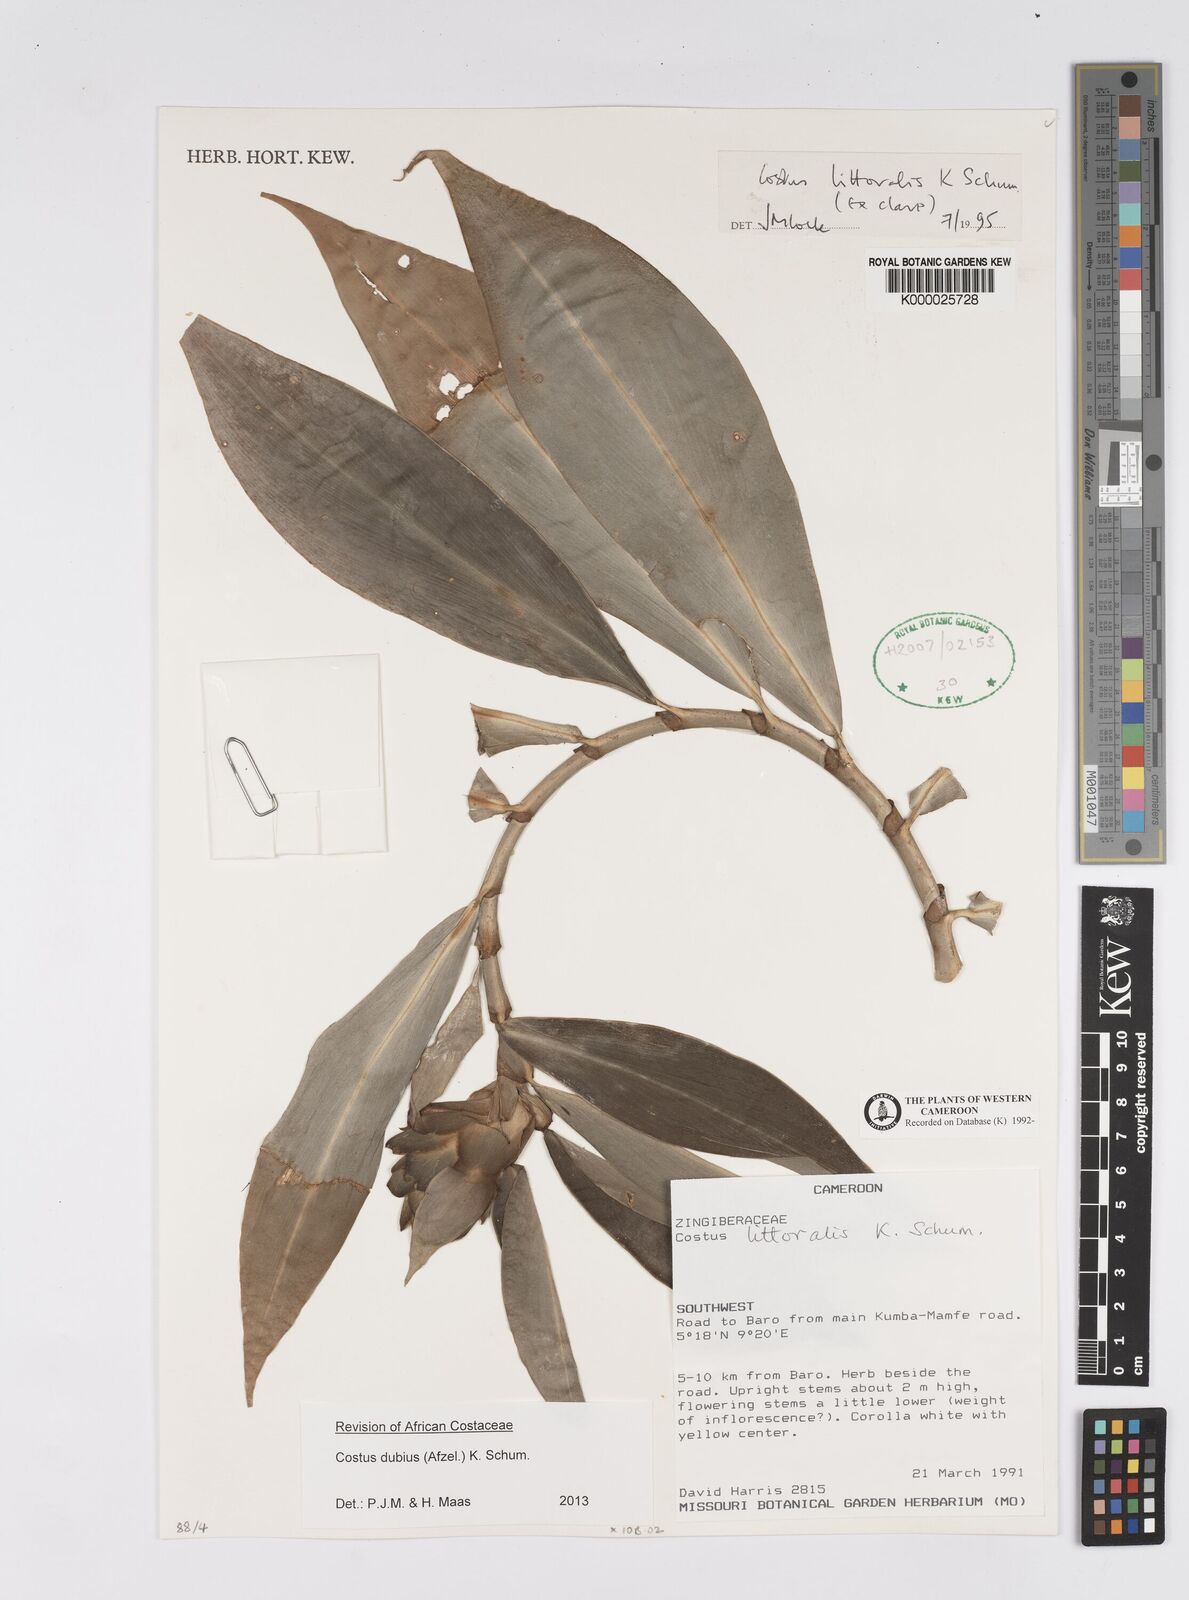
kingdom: Plantae
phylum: Tracheophyta
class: Liliopsida
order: Zingiberales
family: Costaceae
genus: Costus
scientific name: Costus dubius
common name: Costus
